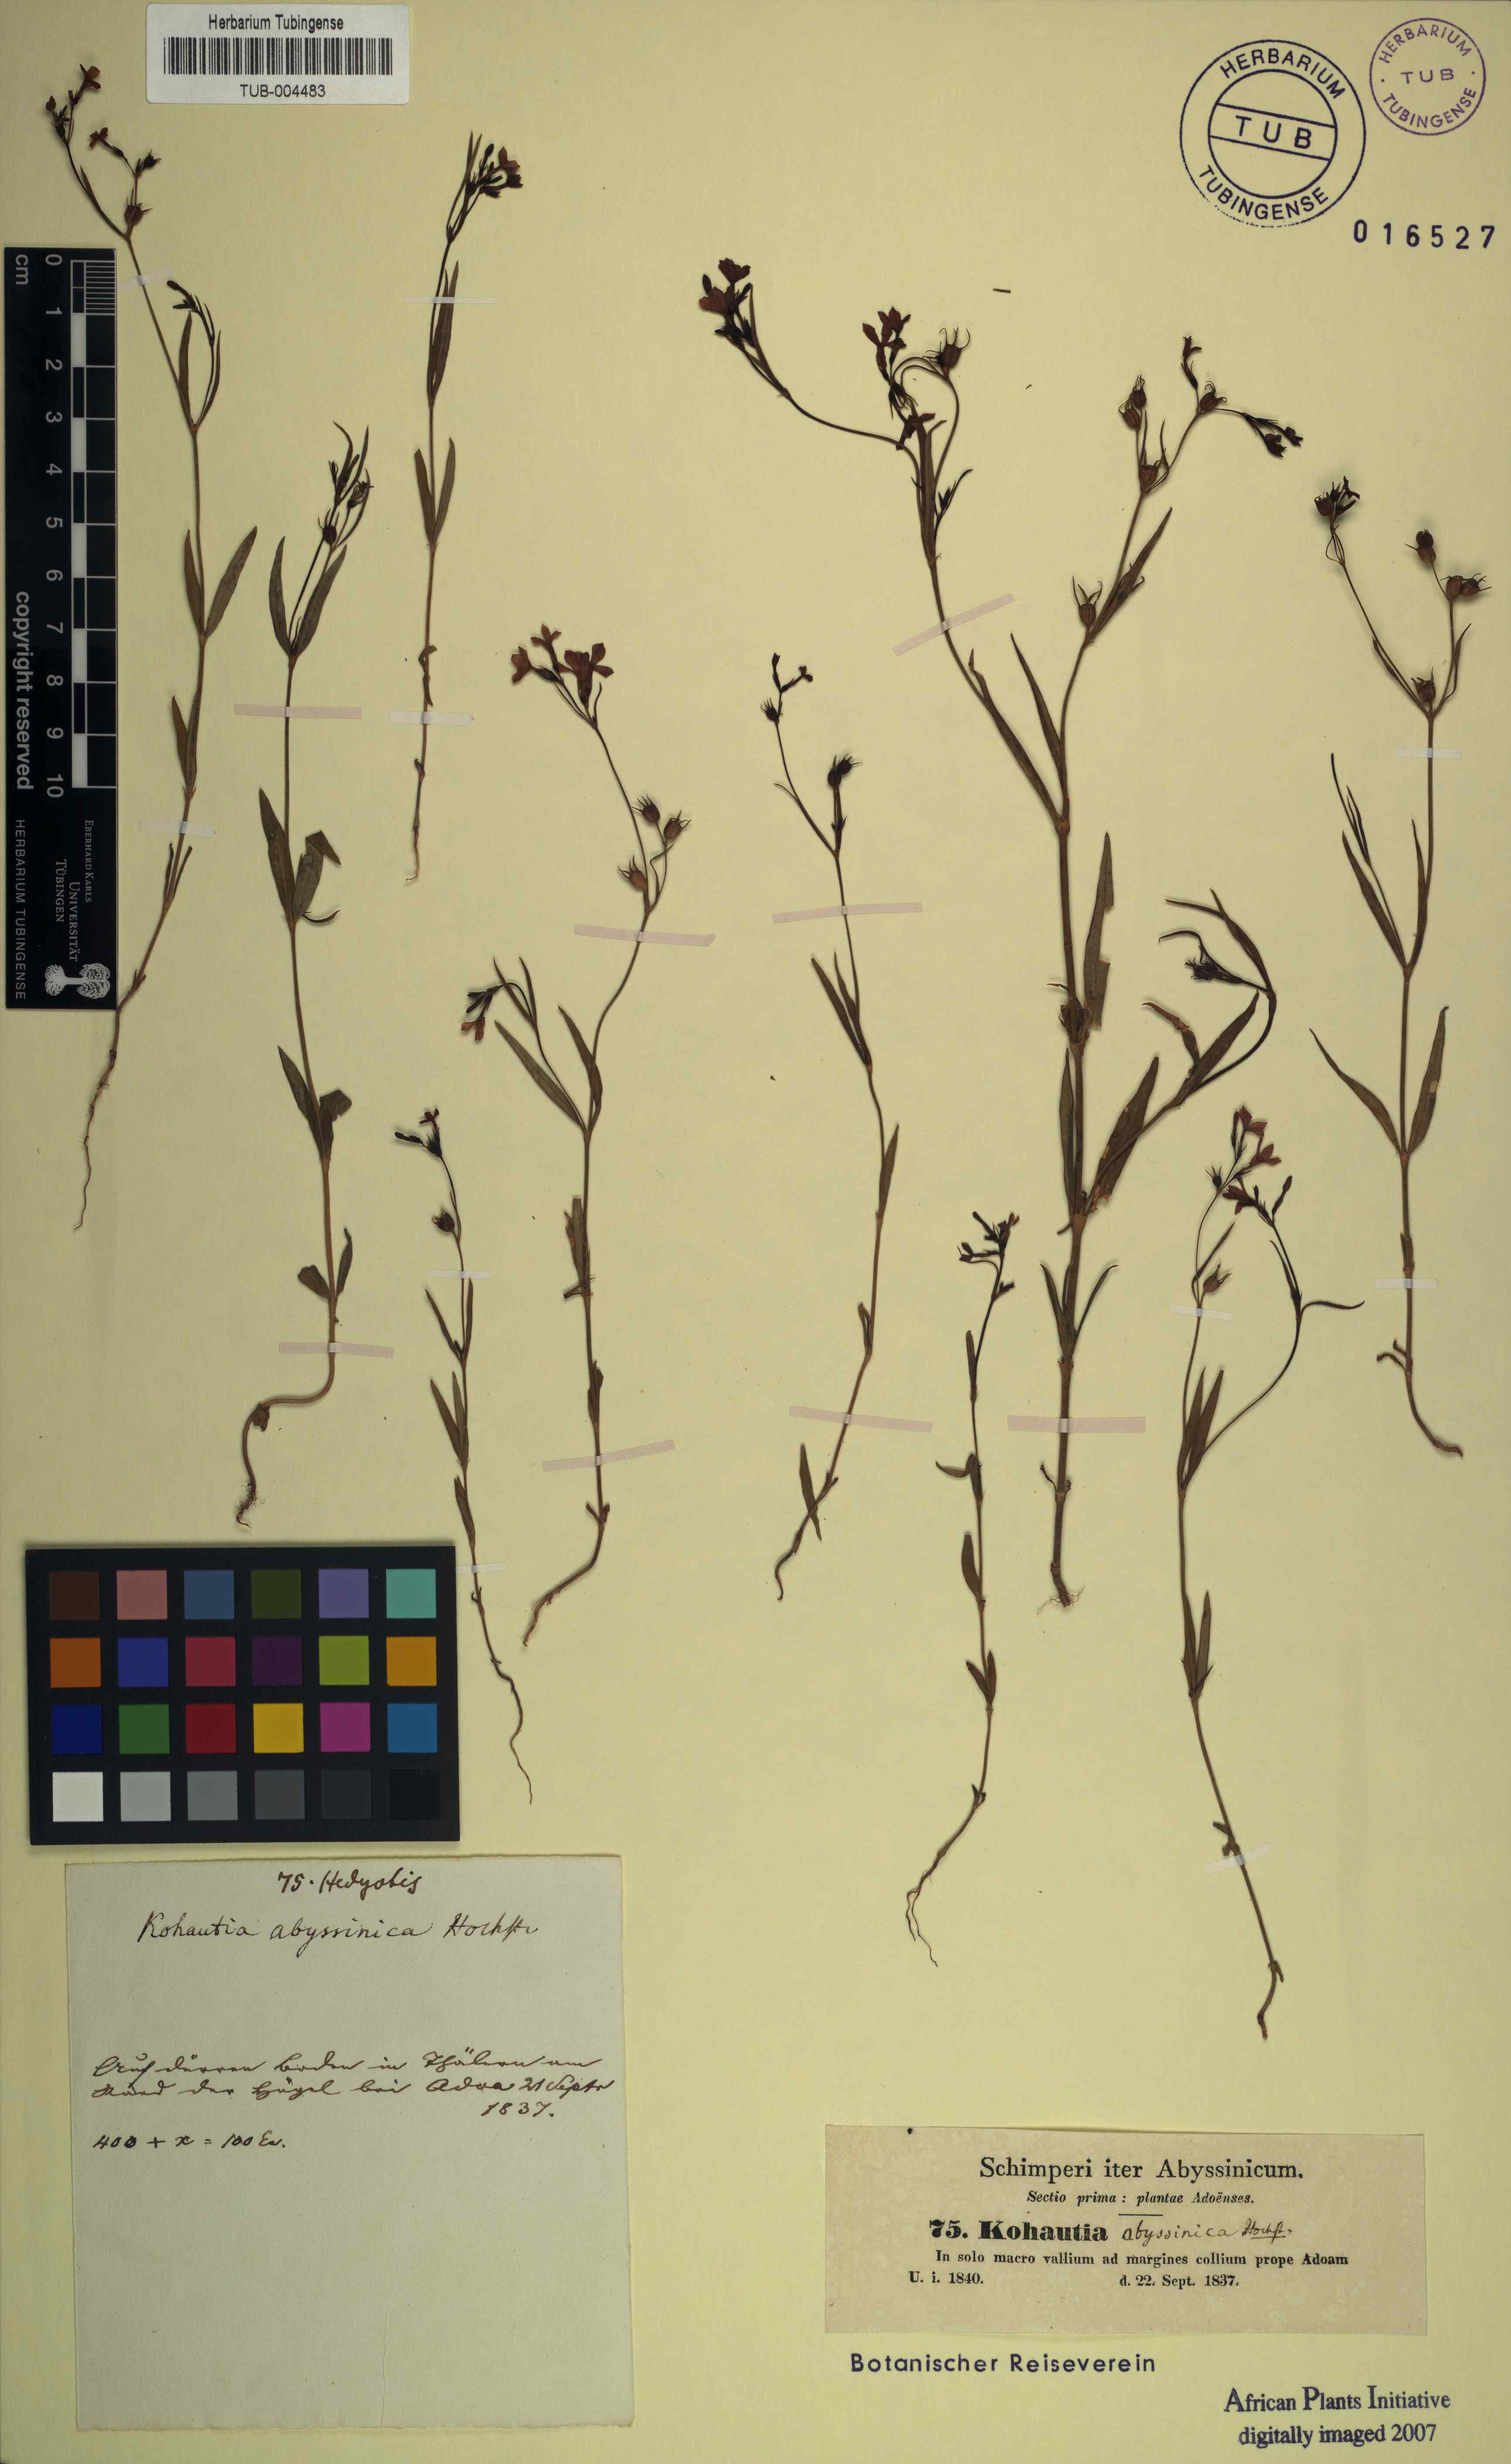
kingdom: Plantae
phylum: Tracheophyta
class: Magnoliopsida
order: Gentianales
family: Rubiaceae
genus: Kohautia
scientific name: Kohautia coccinea
